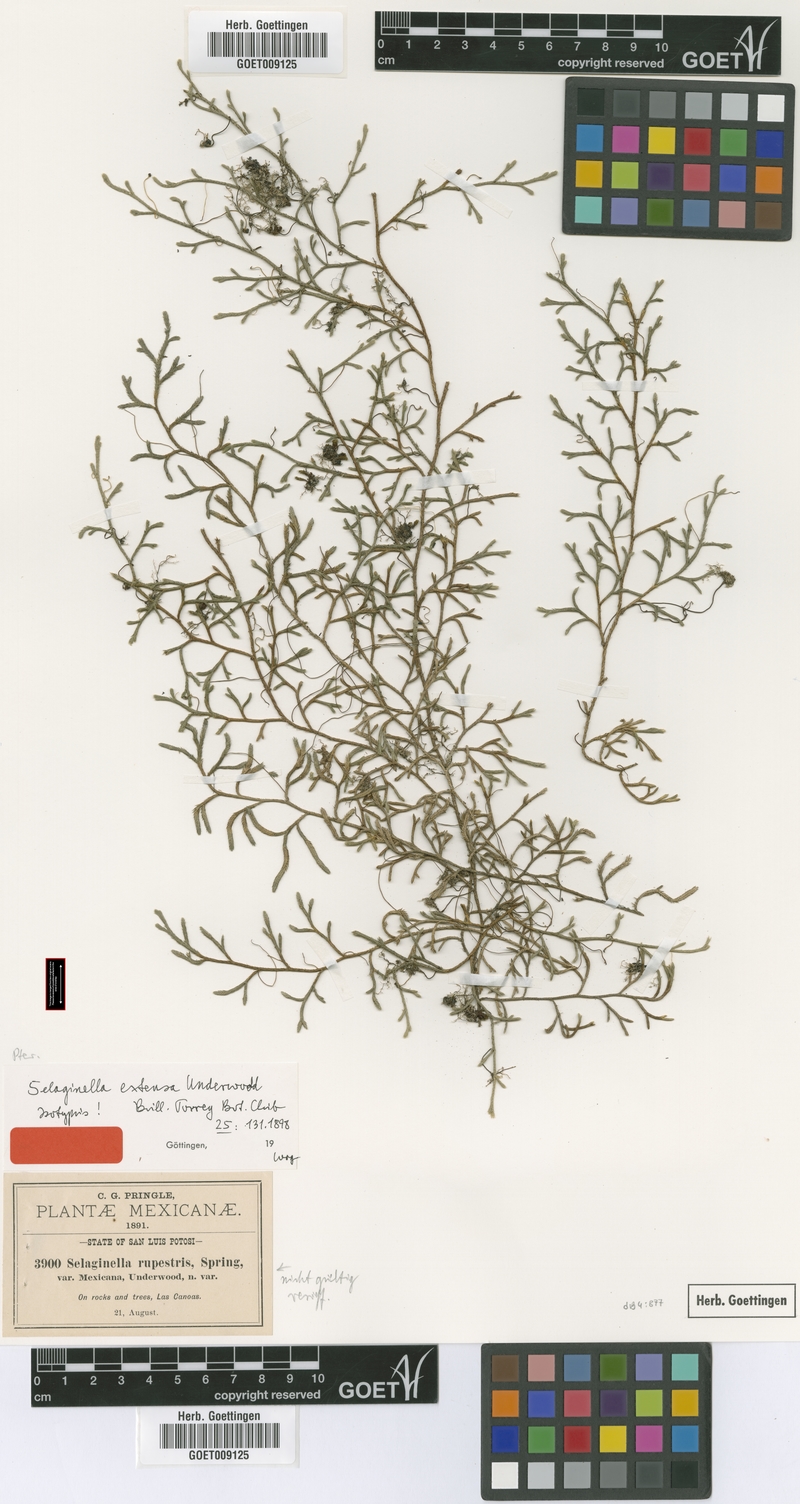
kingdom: Plantae
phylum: Tracheophyta
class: Lycopodiopsida
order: Selaginellales
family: Selaginellaceae
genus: Selaginella
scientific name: Selaginella extensa
